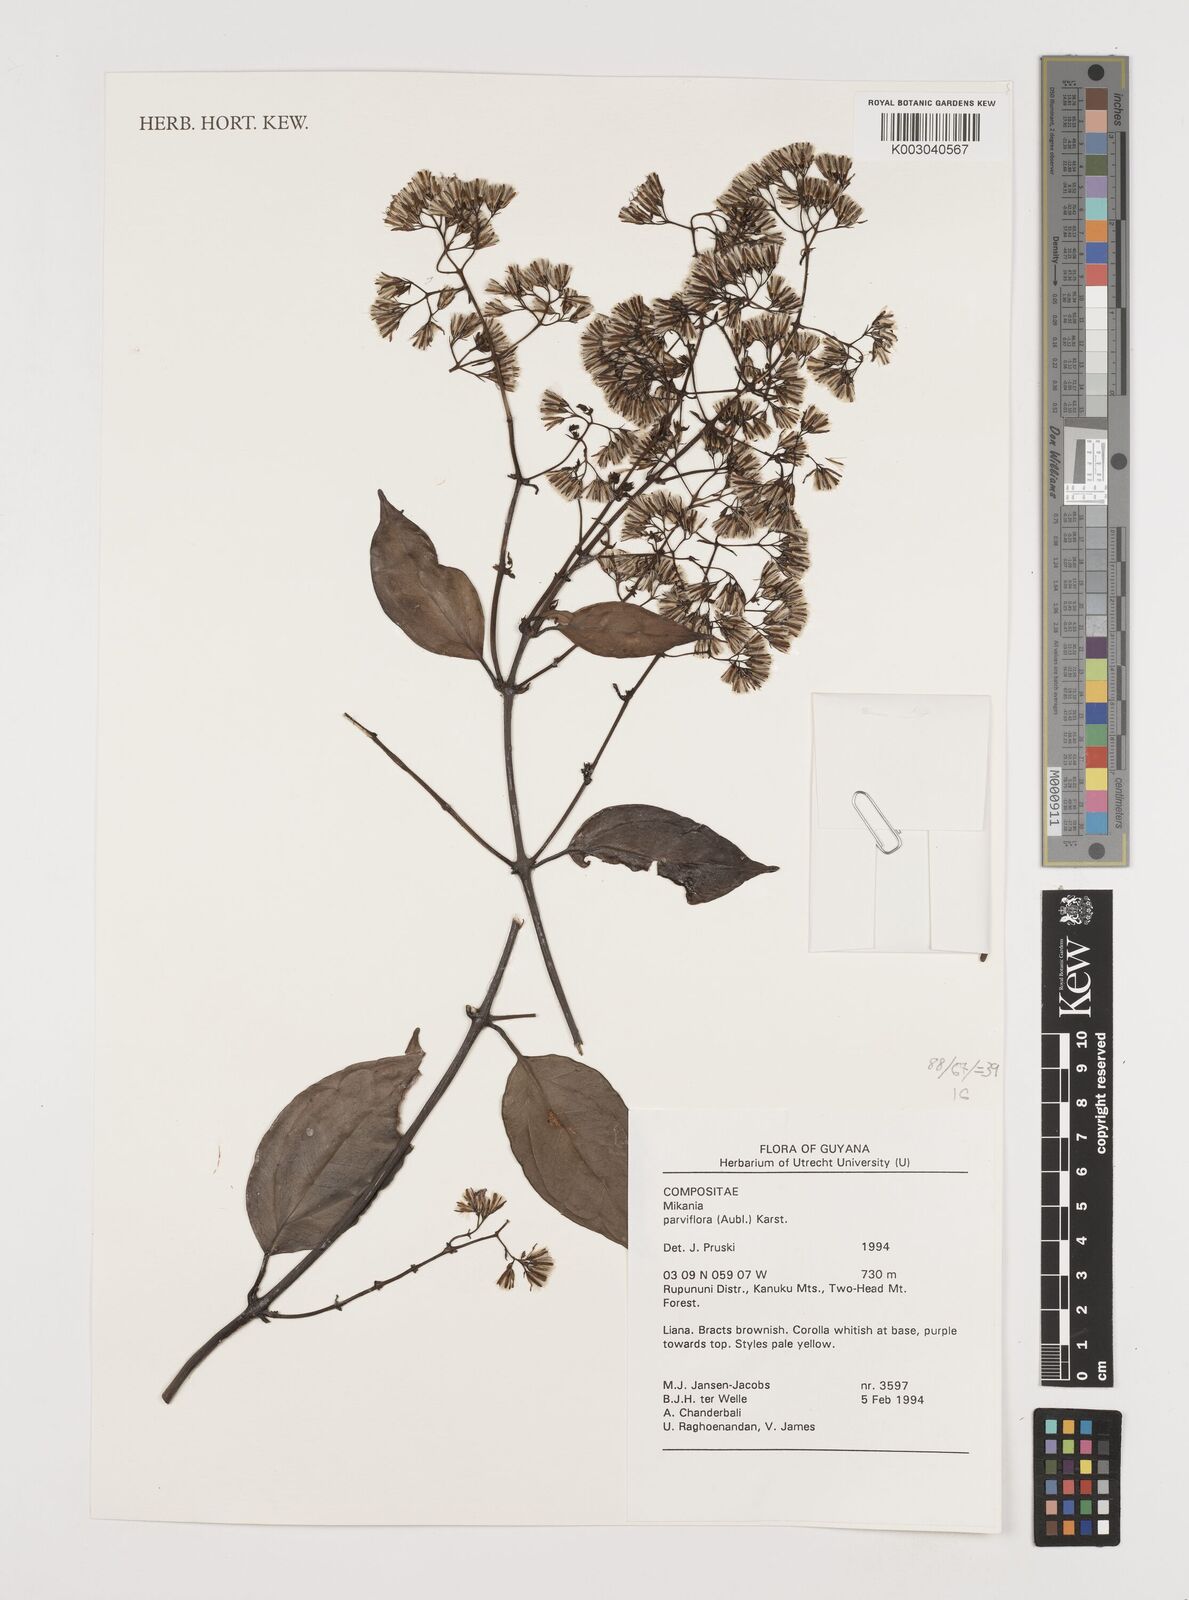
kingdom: Plantae
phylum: Tracheophyta
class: Magnoliopsida
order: Asterales
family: Asteraceae
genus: Mikania
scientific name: Mikania parviflora
